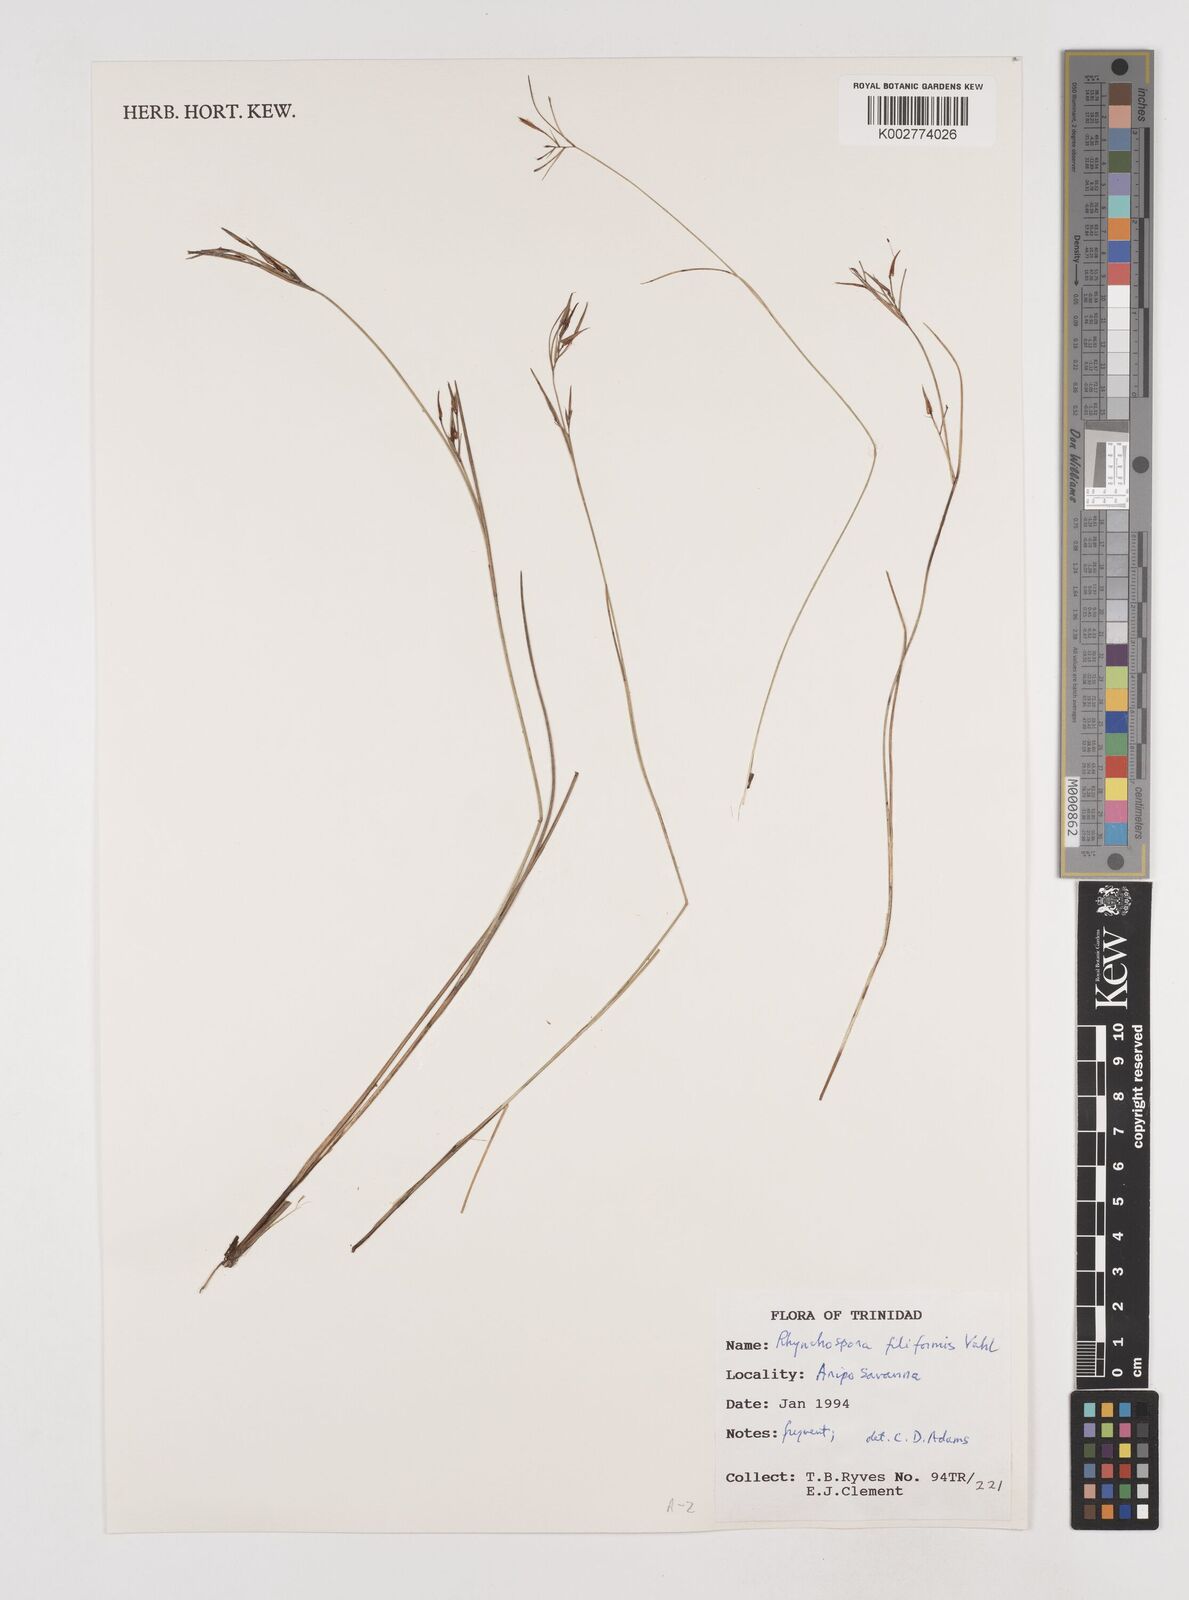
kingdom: Plantae
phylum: Tracheophyta
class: Liliopsida
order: Poales
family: Cyperaceae
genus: Rhynchospora
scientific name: Rhynchospora filiformis
